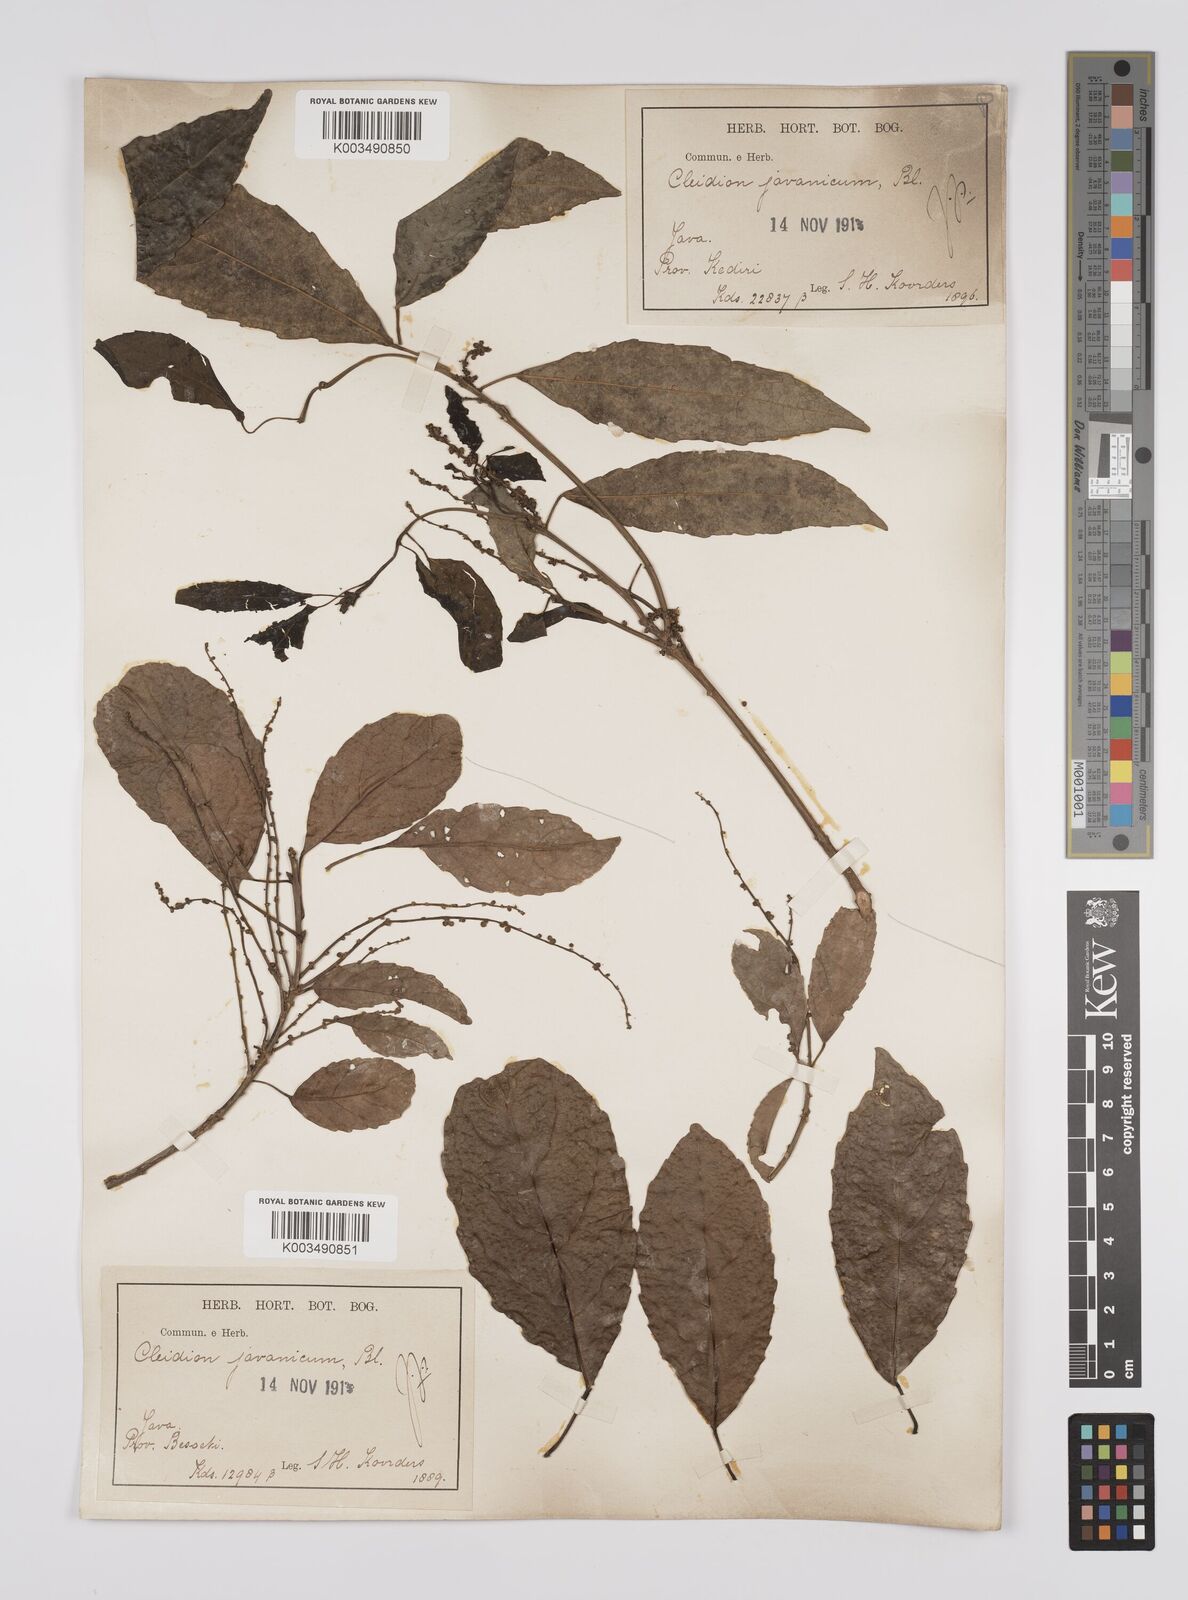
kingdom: Plantae
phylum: Tracheophyta
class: Magnoliopsida
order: Malpighiales
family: Euphorbiaceae
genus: Acalypha
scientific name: Acalypha spiciflora
